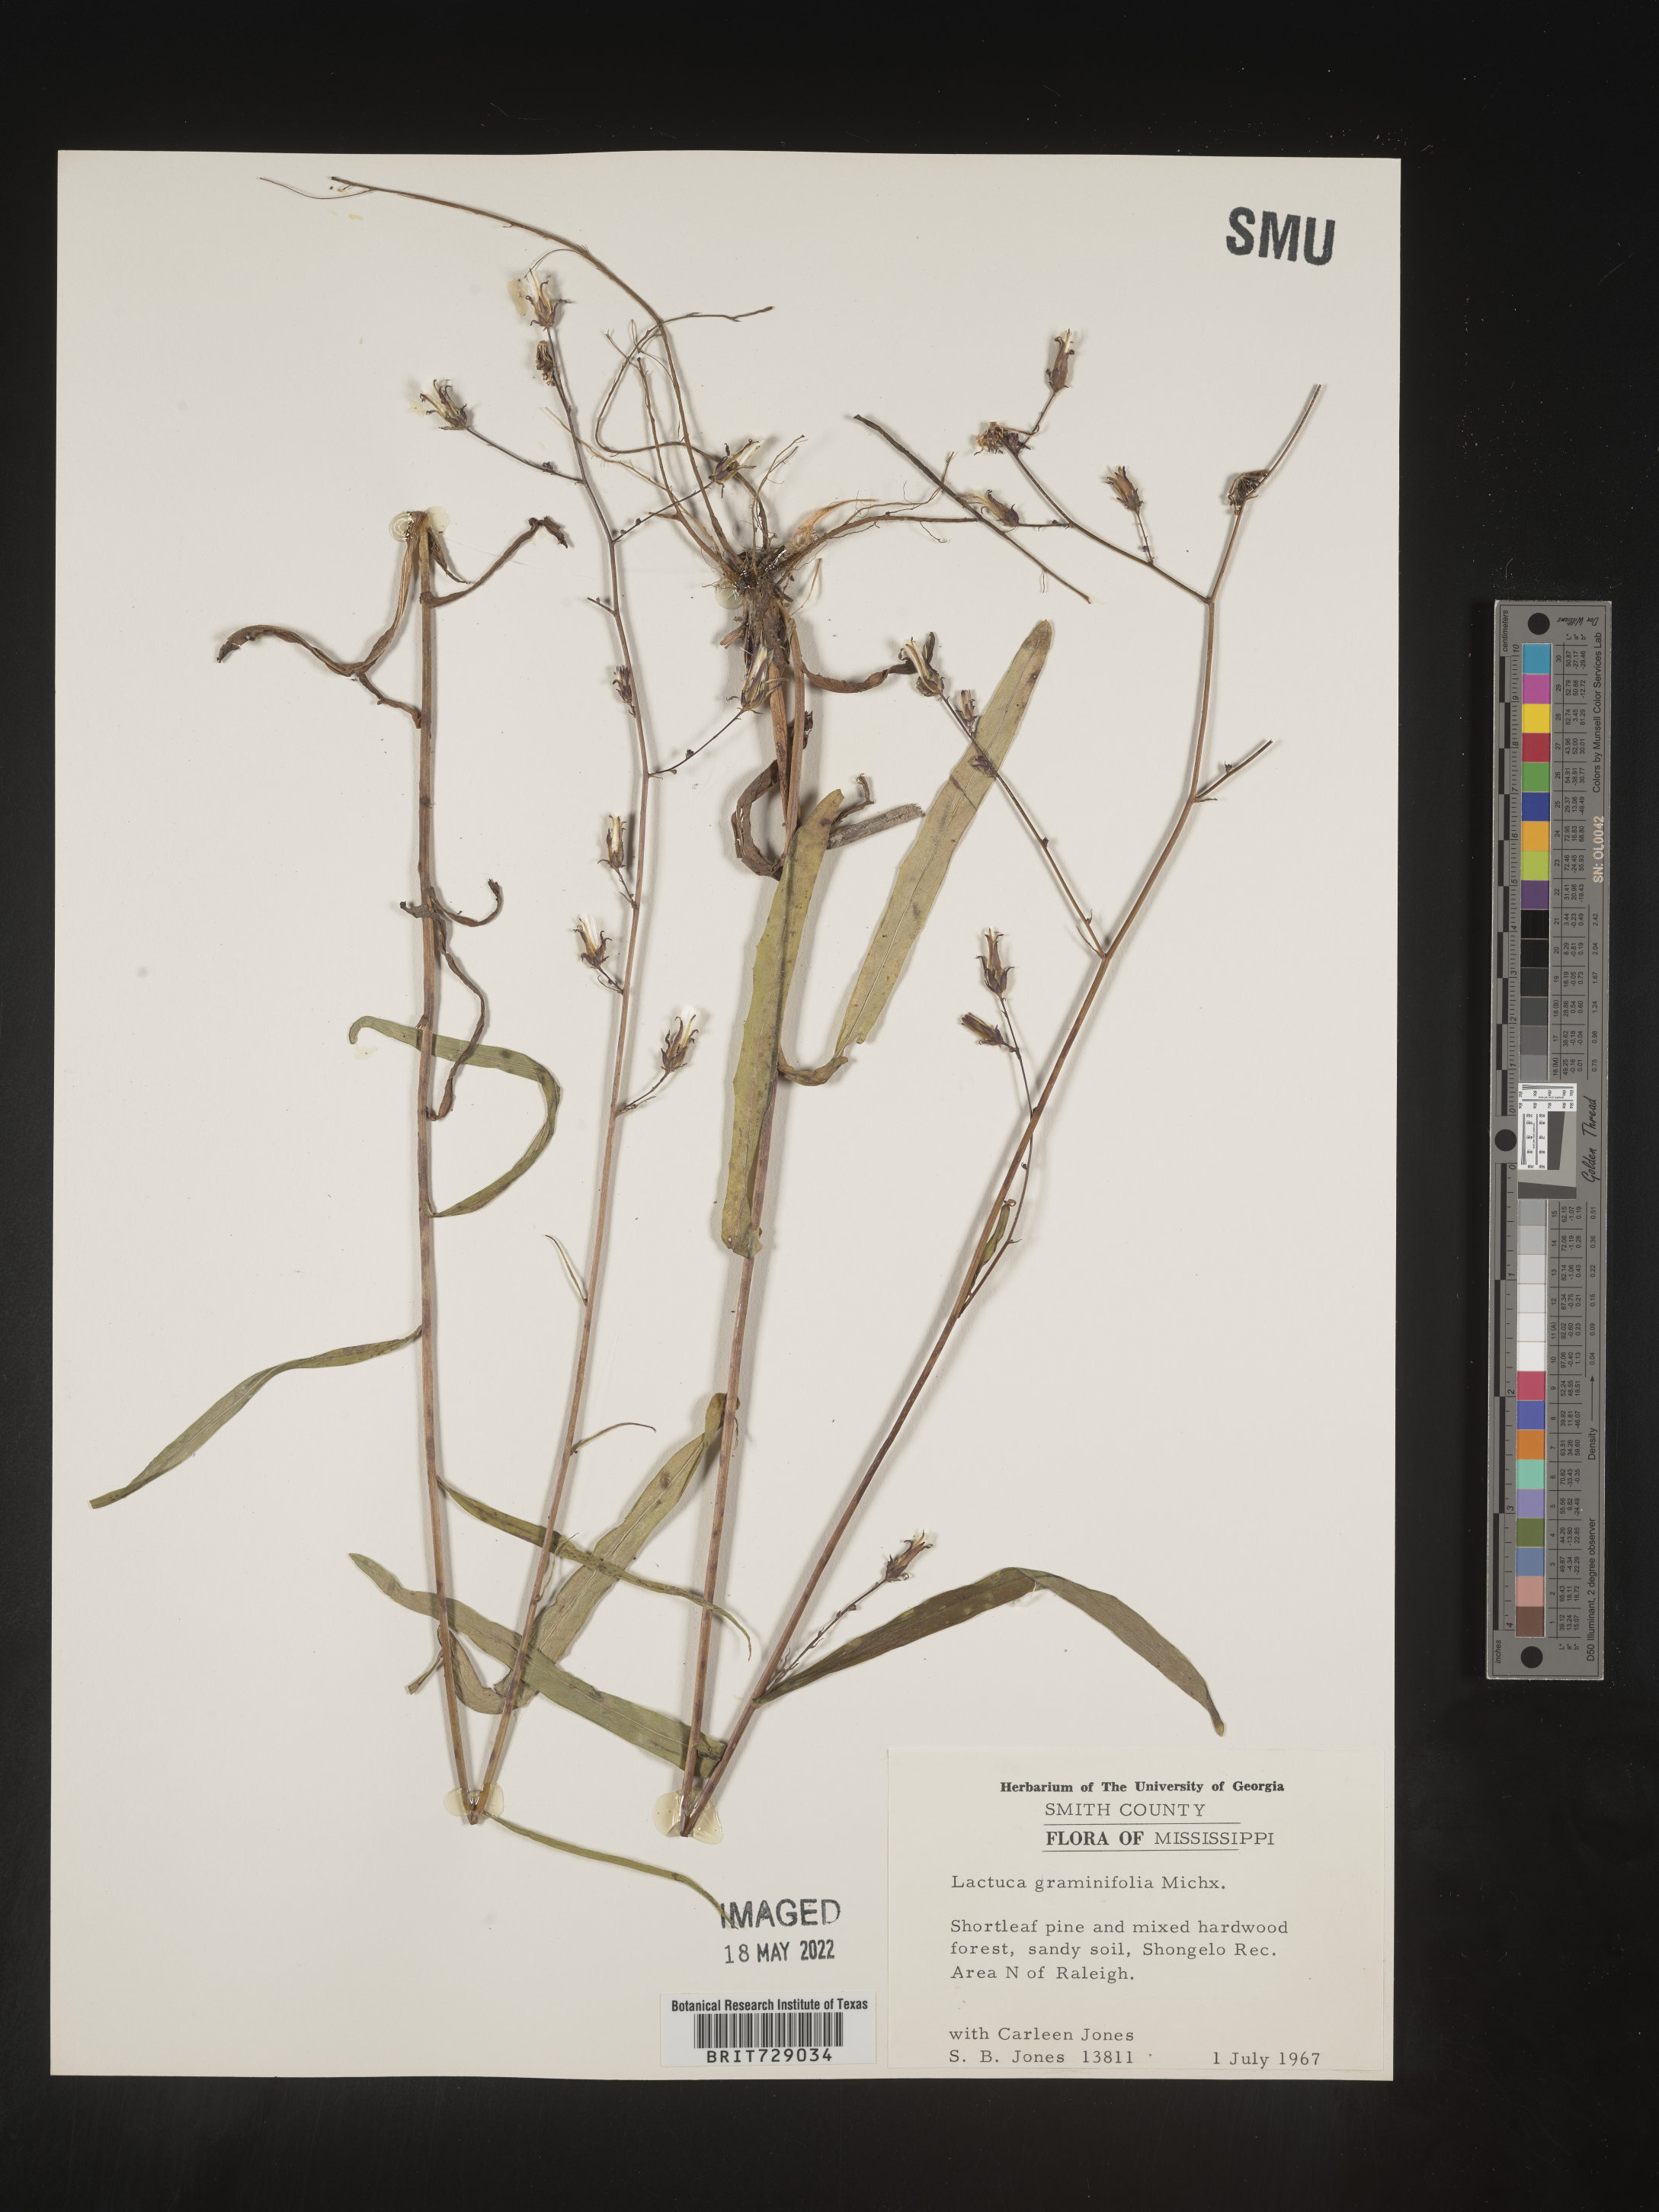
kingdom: Plantae
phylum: Tracheophyta
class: Magnoliopsida
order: Asterales
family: Asteraceae
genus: Lactuca
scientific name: Lactuca graminifolia
